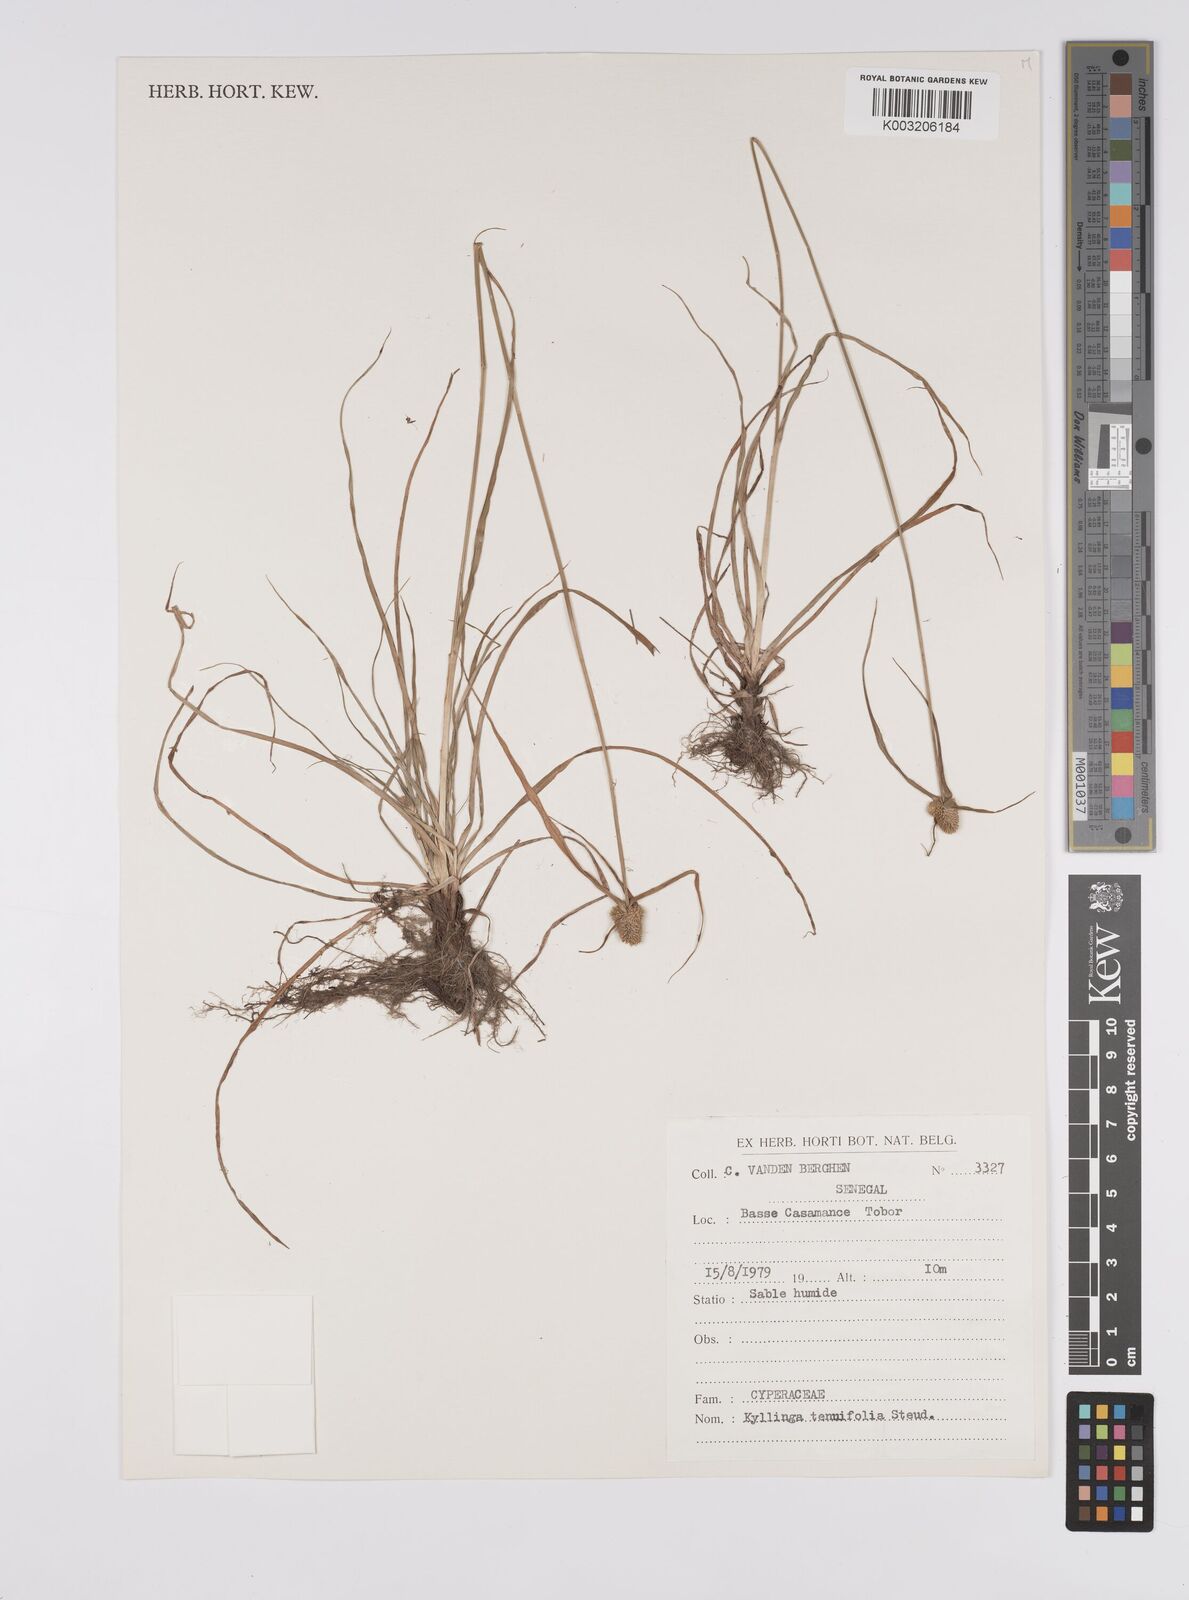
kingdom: Plantae
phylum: Tracheophyta
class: Liliopsida
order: Poales
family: Cyperaceae
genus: Cyperus
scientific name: Cyperus
